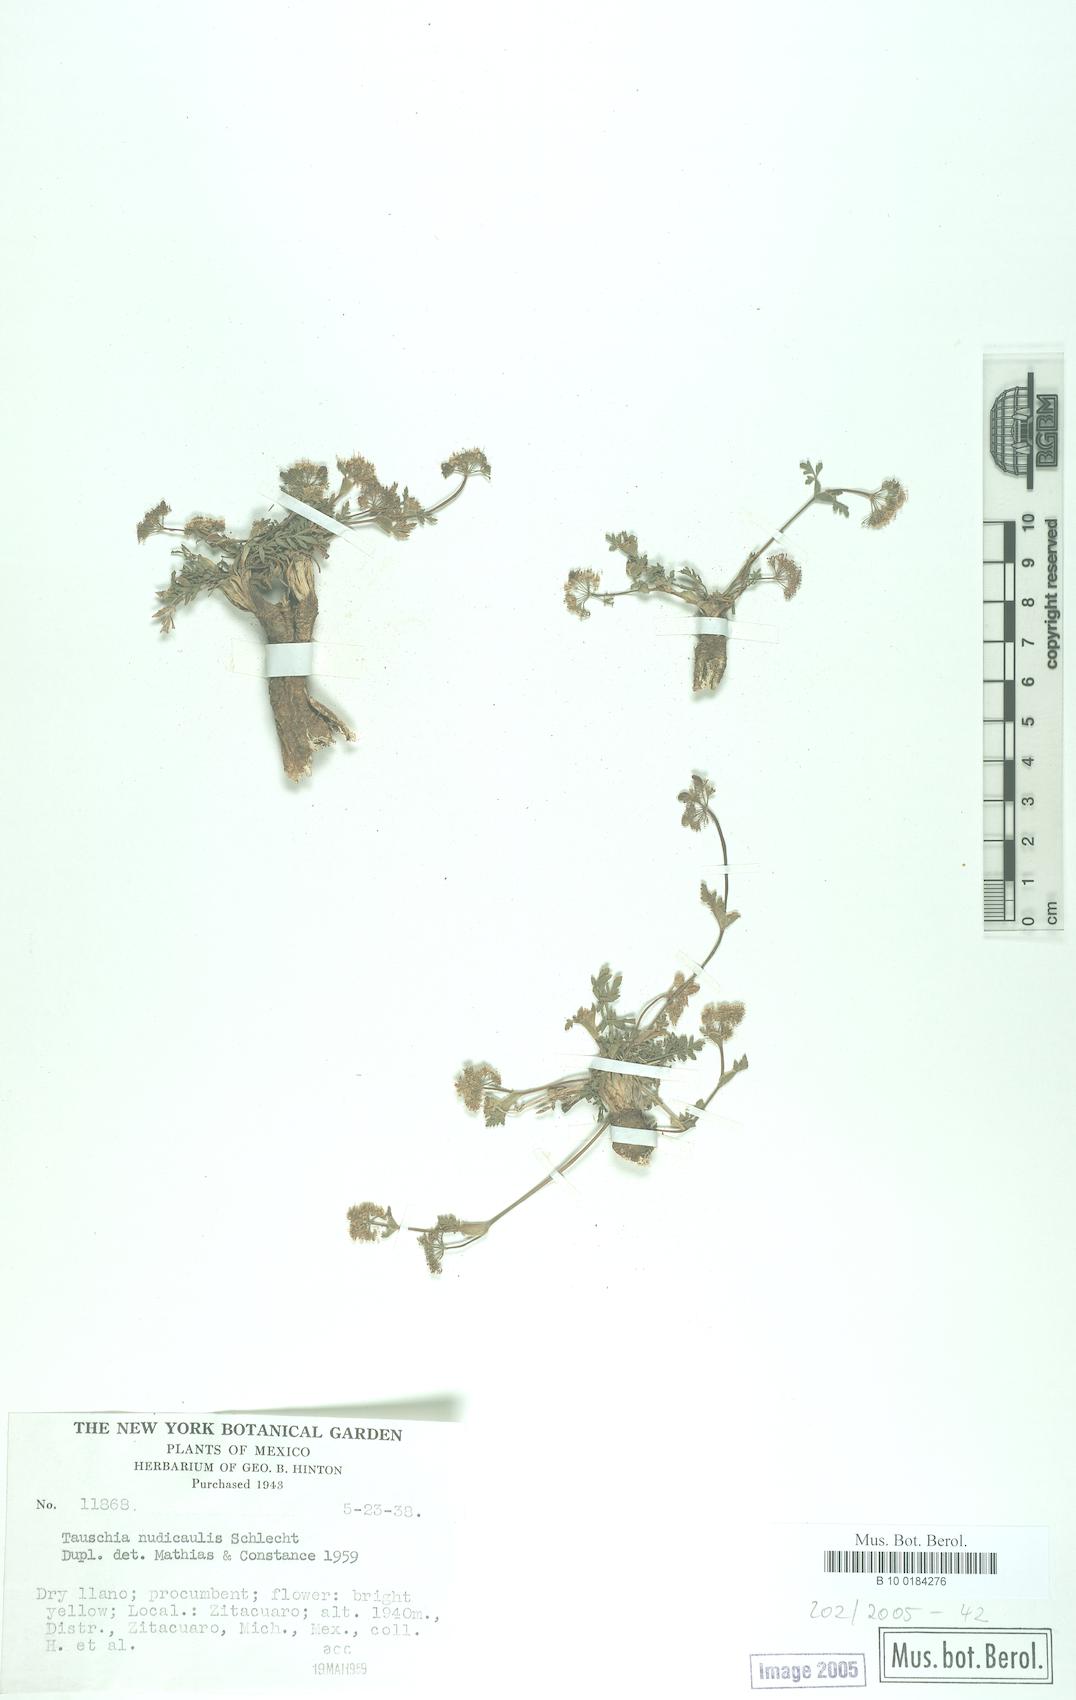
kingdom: Plantae
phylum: Tracheophyta
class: Magnoliopsida
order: Apiales
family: Apiaceae
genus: Tauschia
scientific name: Tauschia nudicaulis
